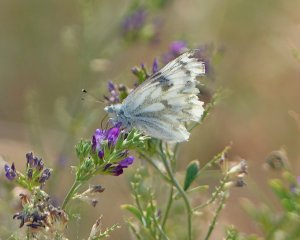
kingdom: Animalia
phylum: Arthropoda
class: Insecta
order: Lepidoptera
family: Pieridae
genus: Pontia
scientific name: Pontia occidentalis
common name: Western White
